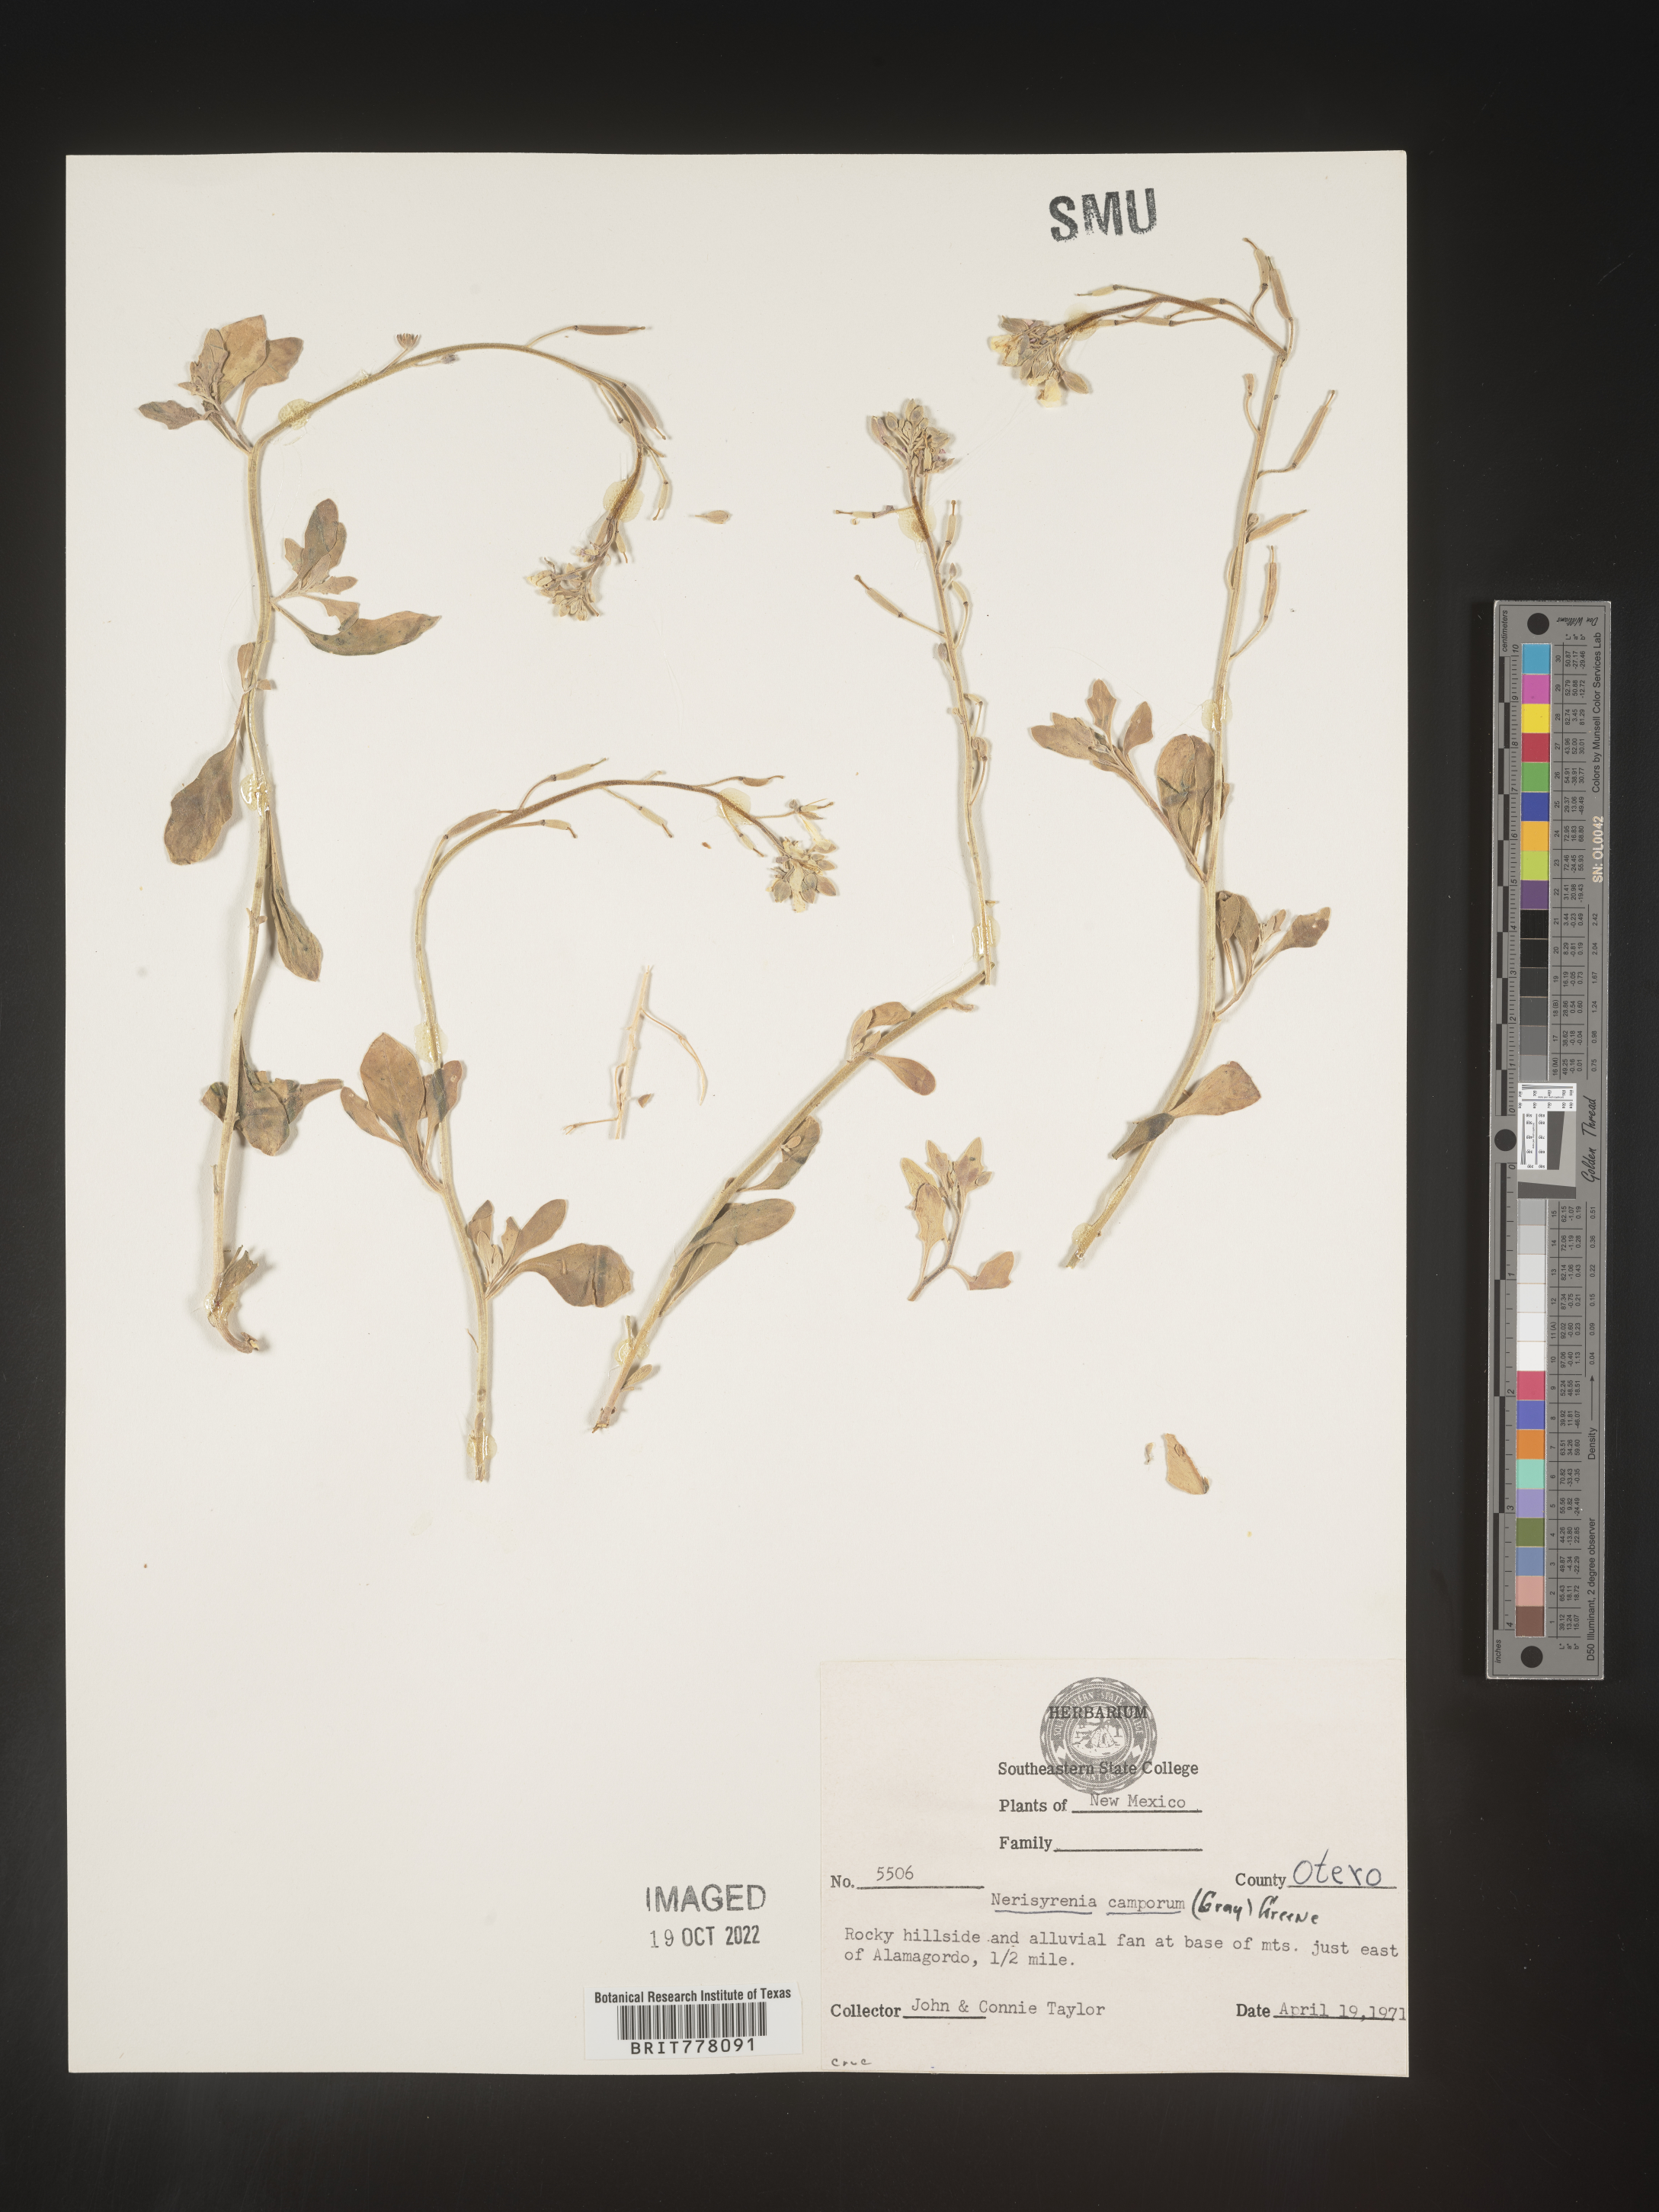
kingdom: Plantae
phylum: Tracheophyta
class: Magnoliopsida
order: Brassicales
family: Brassicaceae
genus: Nerisyrenia
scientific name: Nerisyrenia
